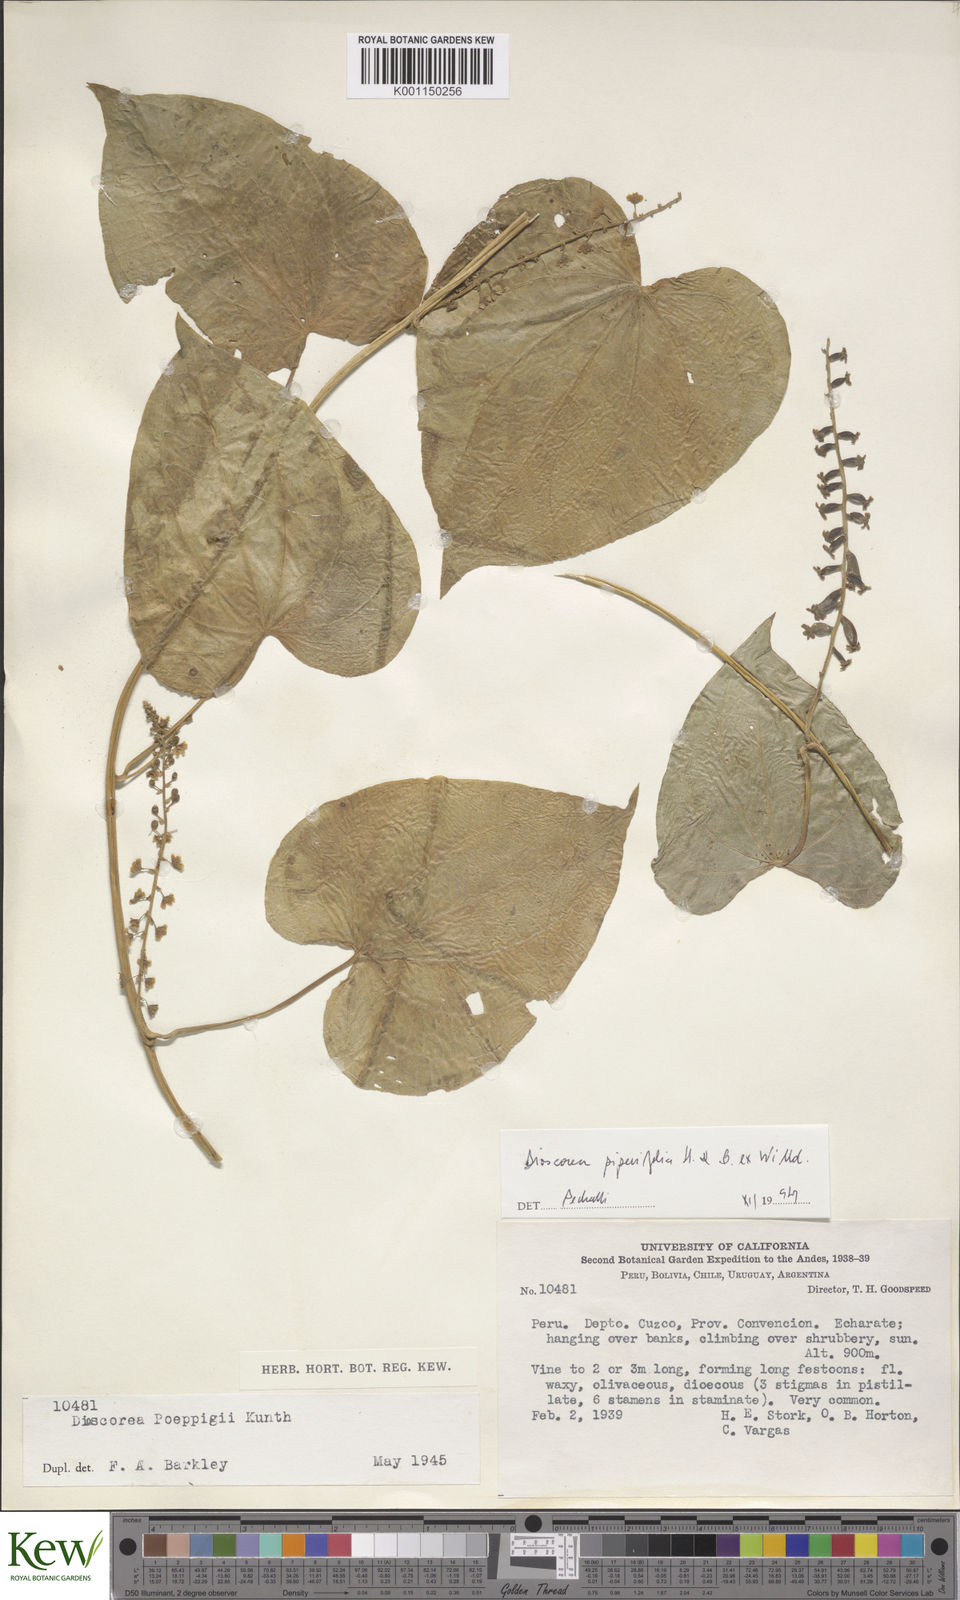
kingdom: Plantae
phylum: Tracheophyta
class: Liliopsida
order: Dioscoreales
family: Dioscoreaceae
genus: Dioscorea
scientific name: Dioscorea glandulosa
